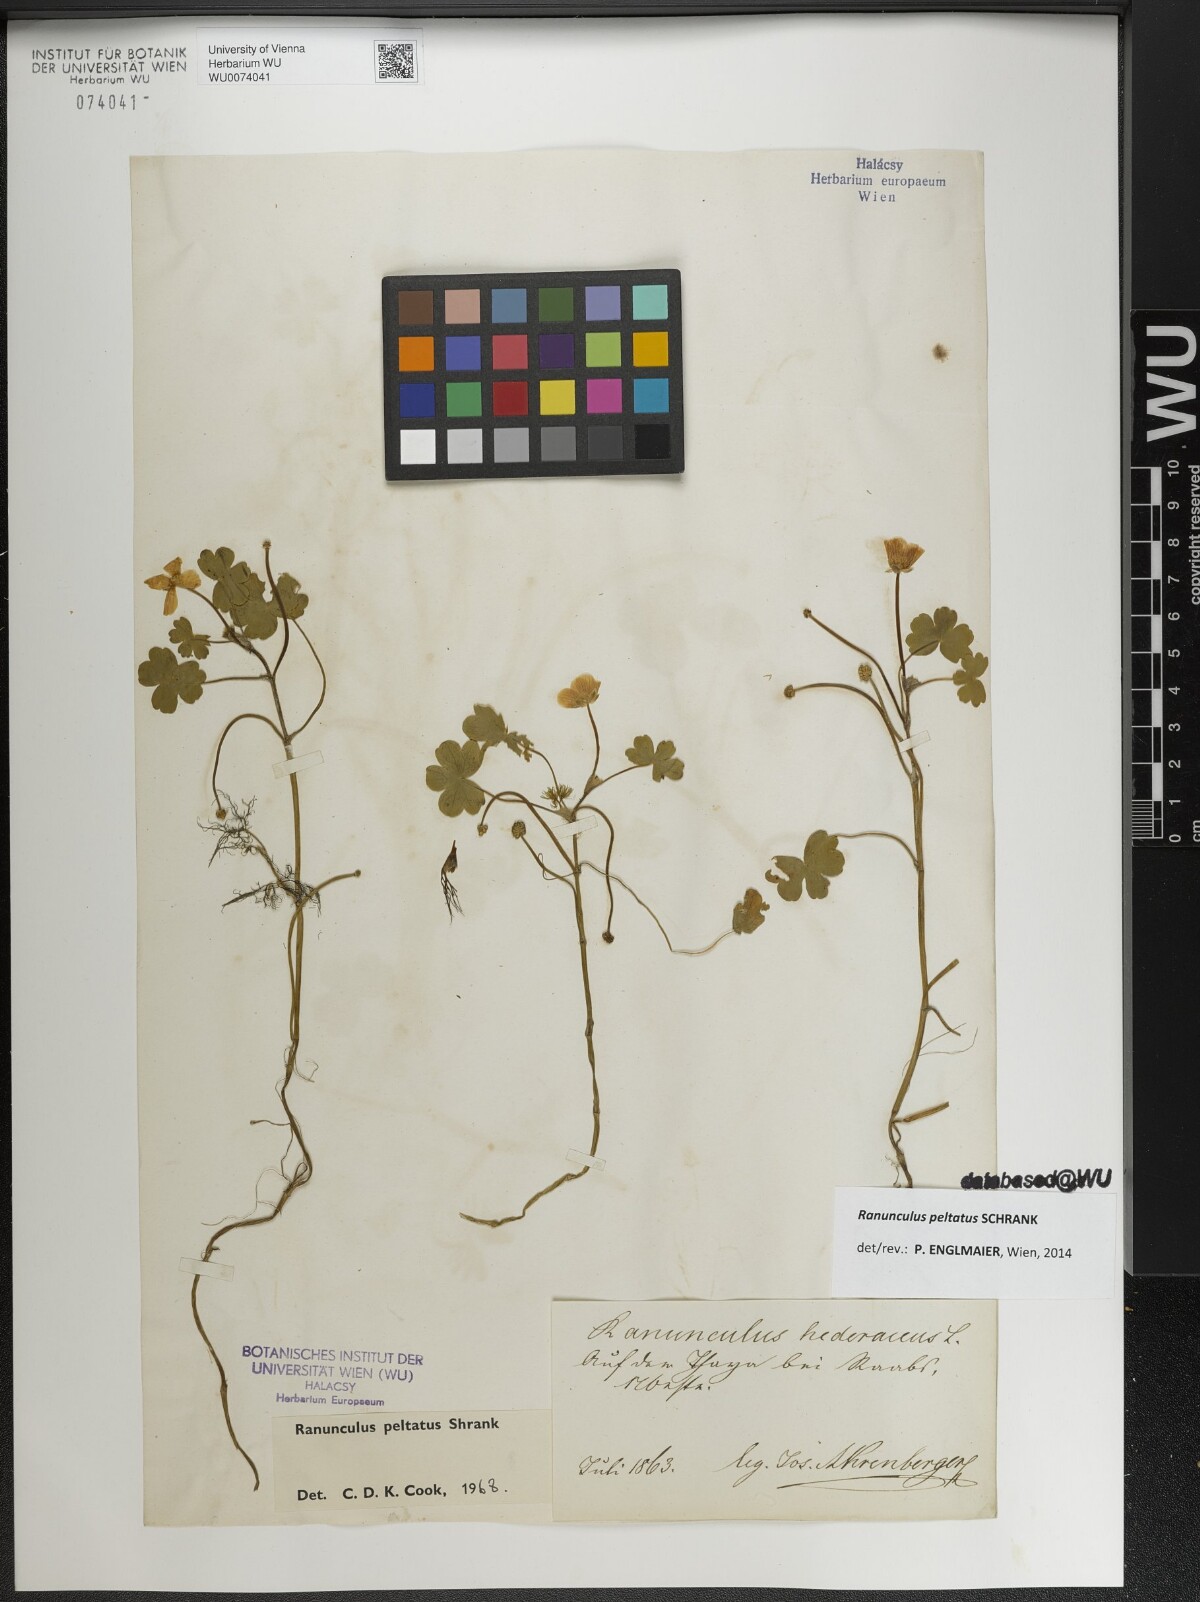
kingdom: Plantae
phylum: Tracheophyta
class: Magnoliopsida
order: Ranunculales
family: Ranunculaceae
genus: Ranunculus
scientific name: Ranunculus peltatus
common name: Pond water-crowfoot
